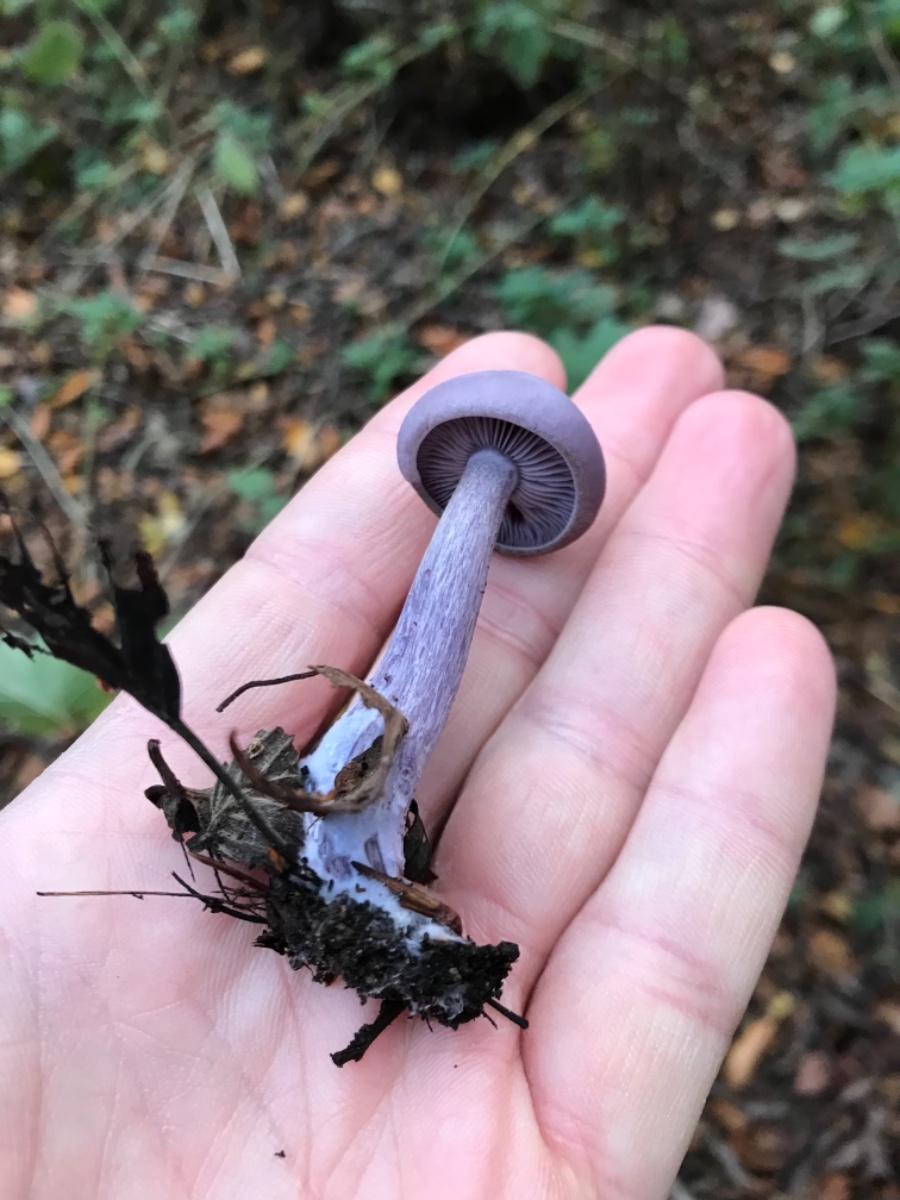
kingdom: Fungi
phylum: Basidiomycota
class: Agaricomycetes
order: Agaricales
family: Tricholomataceae
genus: Lepista
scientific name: Lepista nuda
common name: violet hekseringshat
